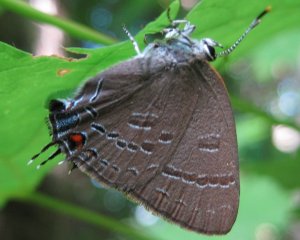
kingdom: Animalia
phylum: Arthropoda
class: Insecta
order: Lepidoptera
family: Lycaenidae
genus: Satyrium
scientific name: Satyrium calanus
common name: Banded Hairstreak
